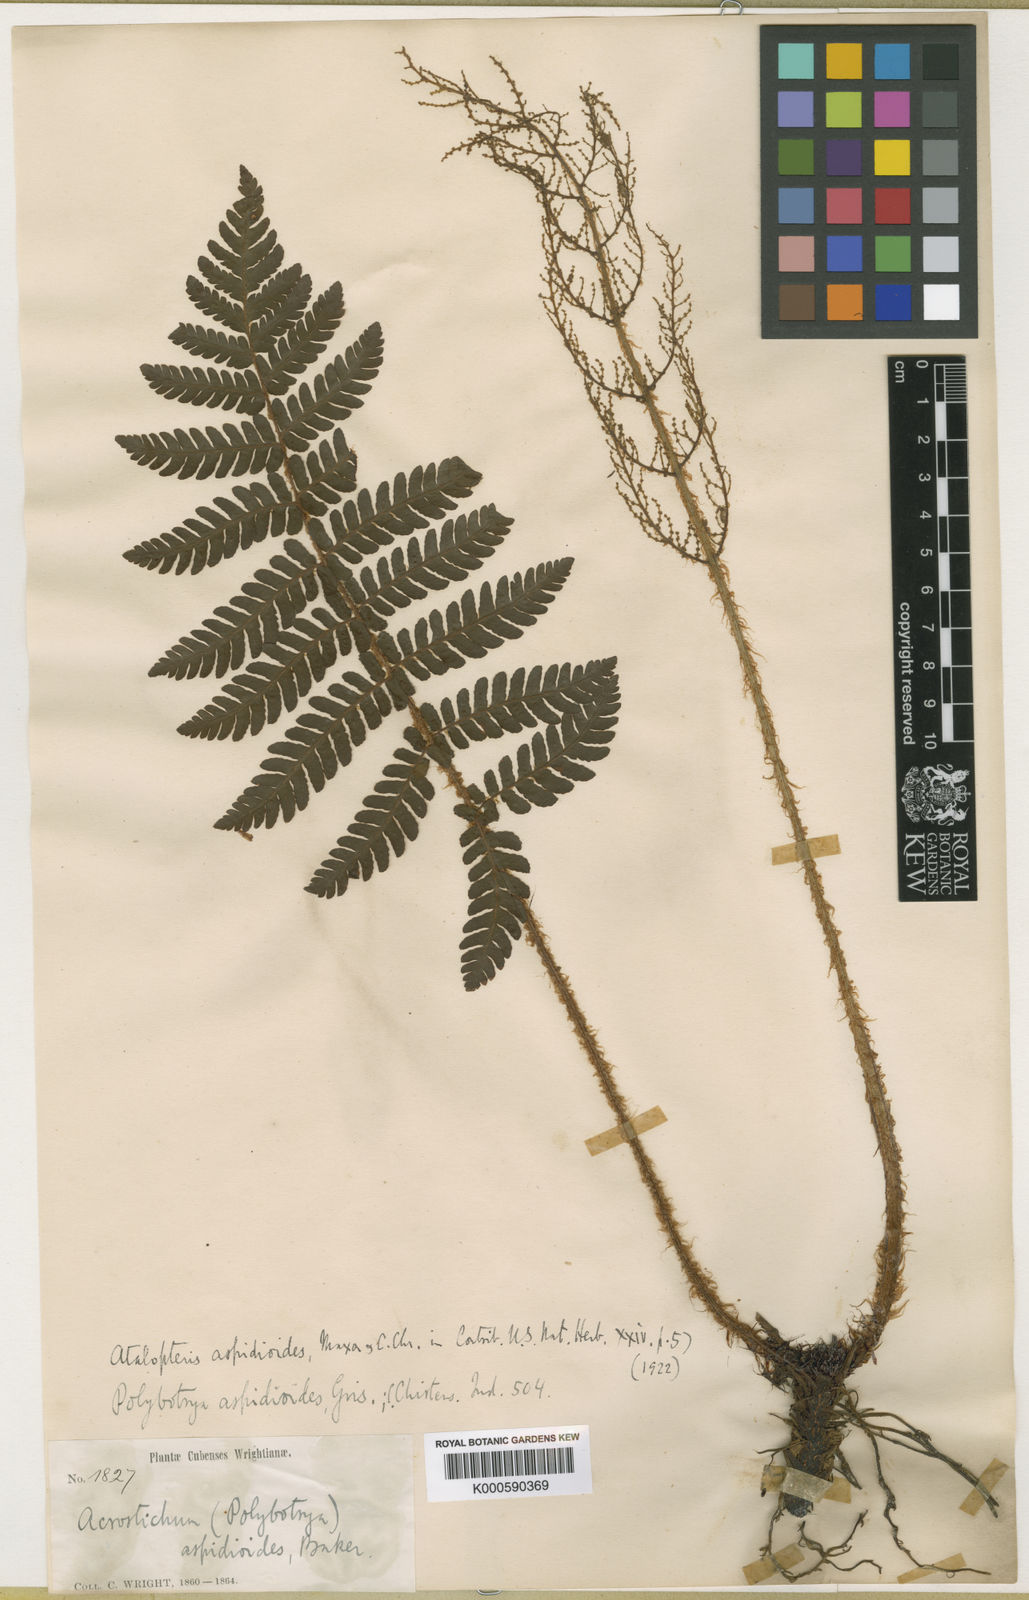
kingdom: Plantae
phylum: Tracheophyta
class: Polypodiopsida
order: Polypodiales
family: Dryopteridaceae
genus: Atalopteris
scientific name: Atalopteris aspidioides
